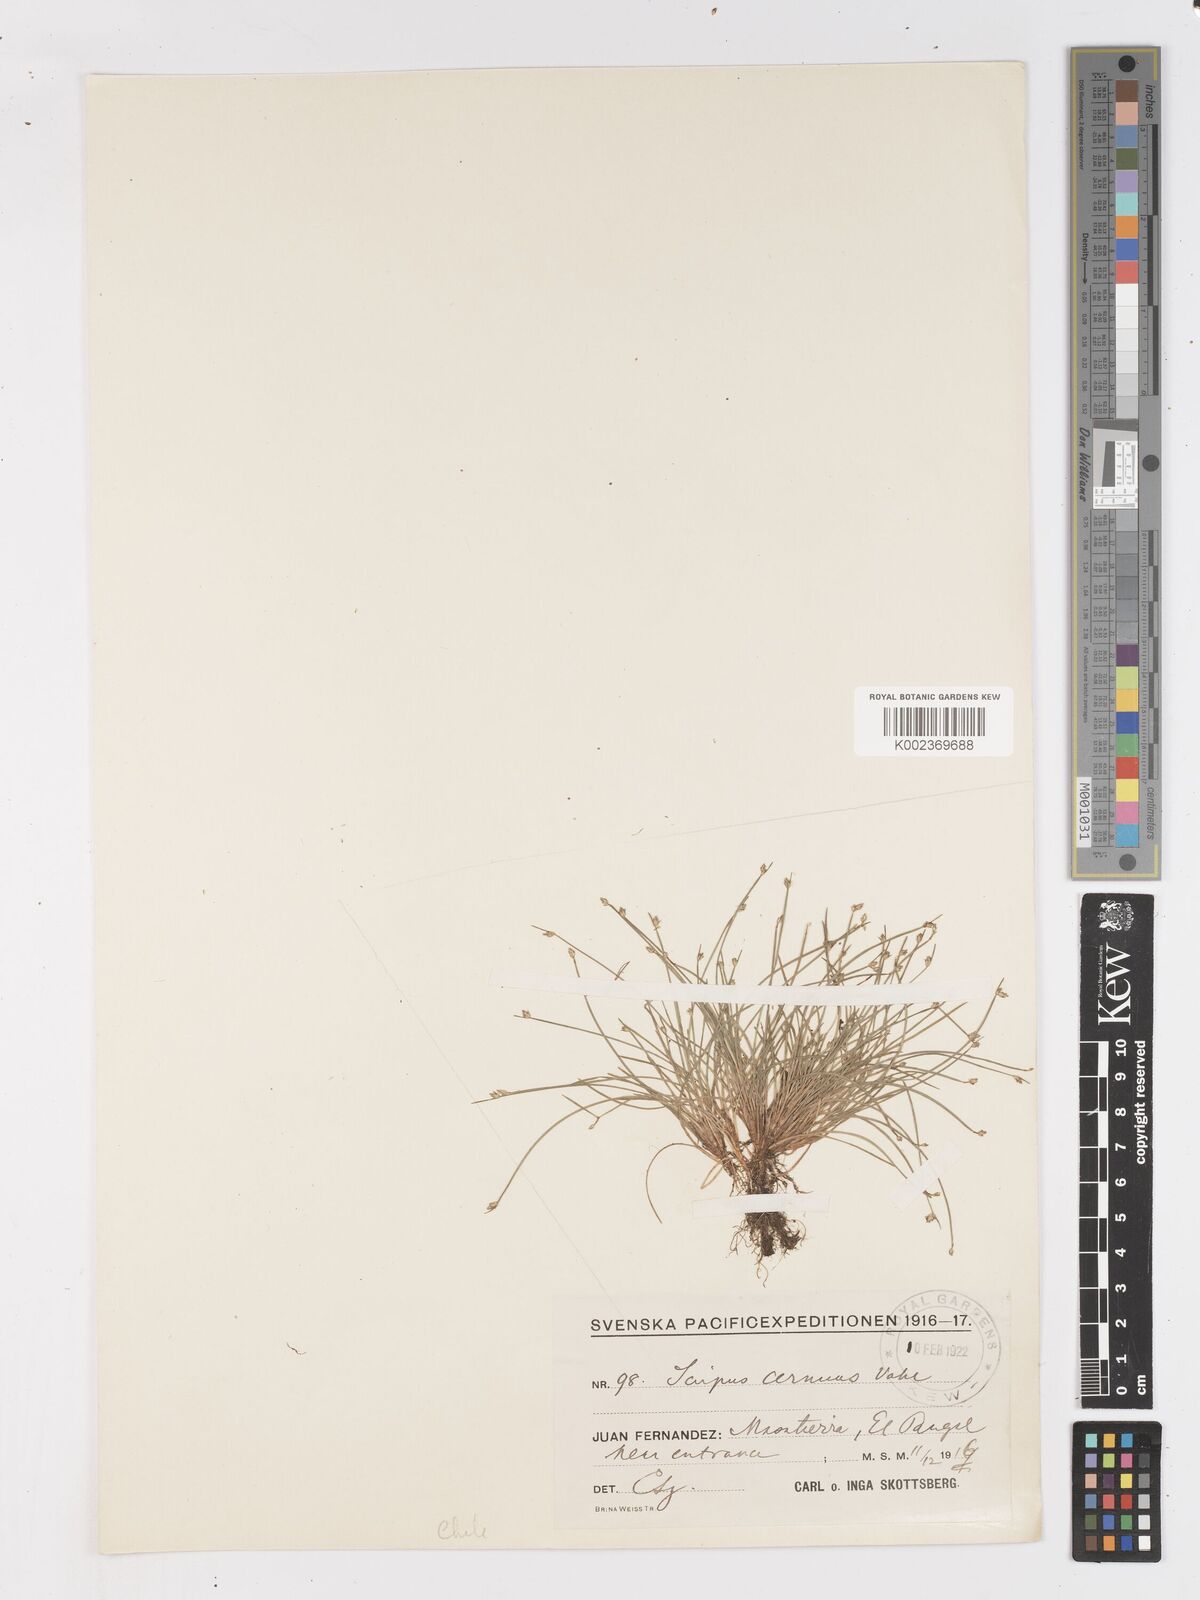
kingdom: Plantae
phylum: Tracheophyta
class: Liliopsida
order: Poales
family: Cyperaceae
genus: Isolepis
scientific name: Isolepis cernua
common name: Slender club-rush
